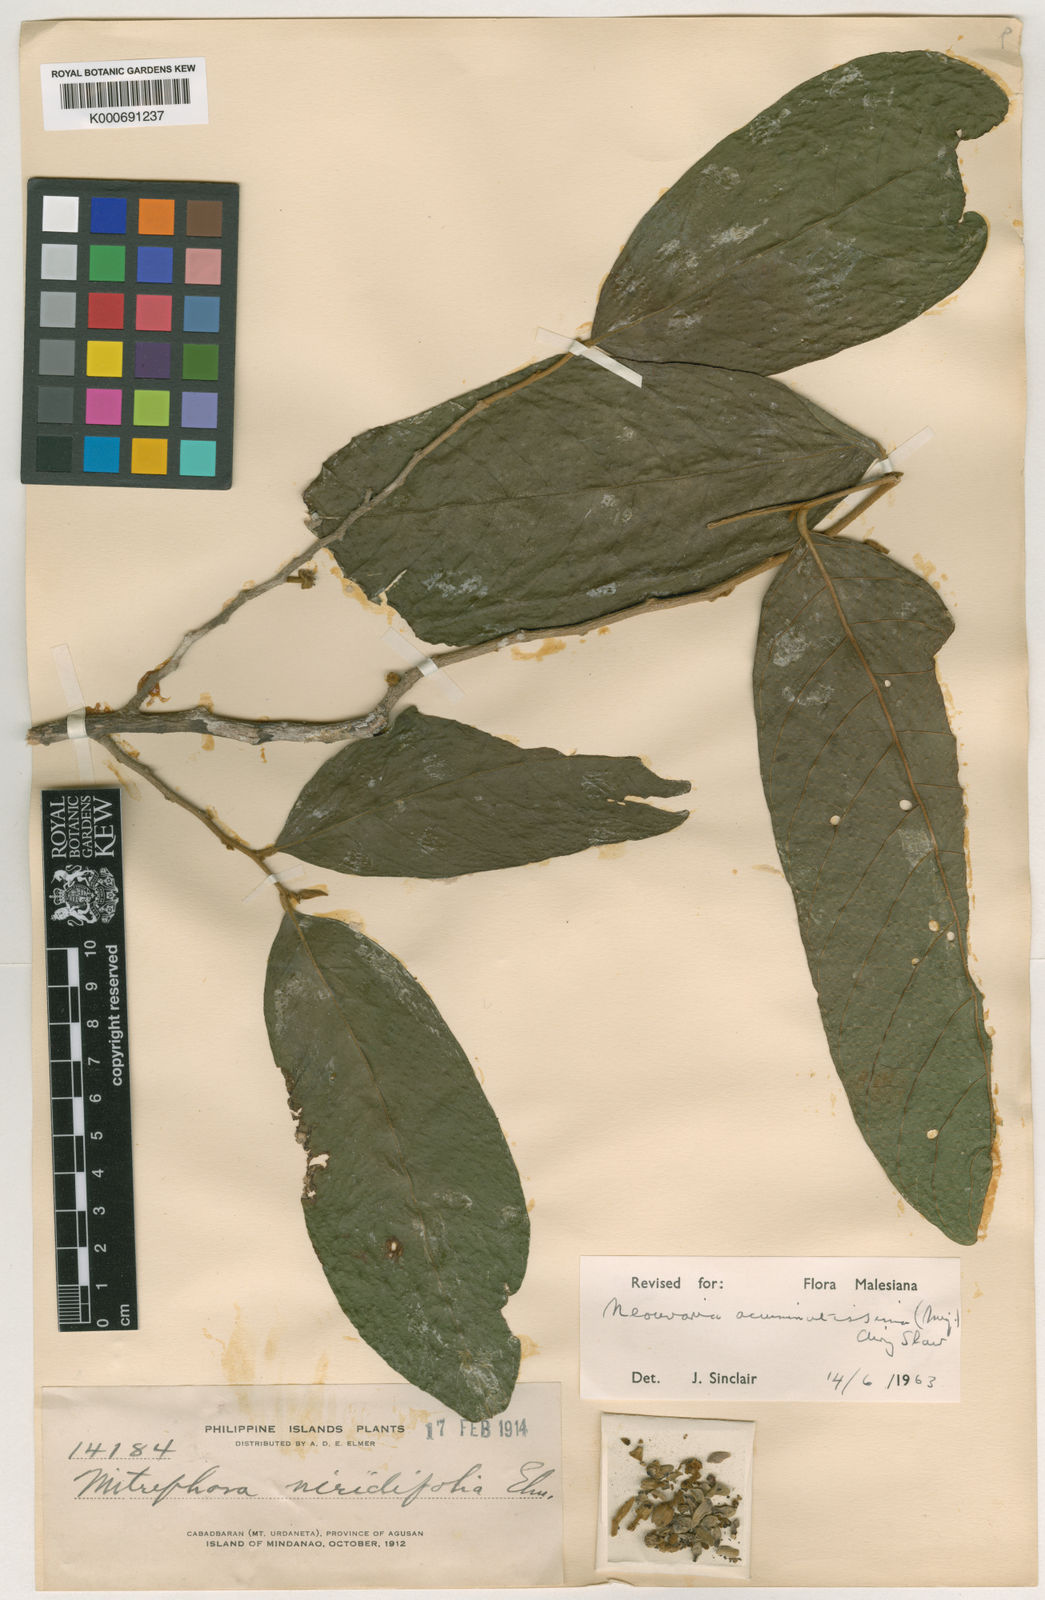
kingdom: Plantae
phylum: Tracheophyta
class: Magnoliopsida
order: Magnoliales
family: Annonaceae
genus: Neouvaria
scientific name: Neouvaria acuminatissima
